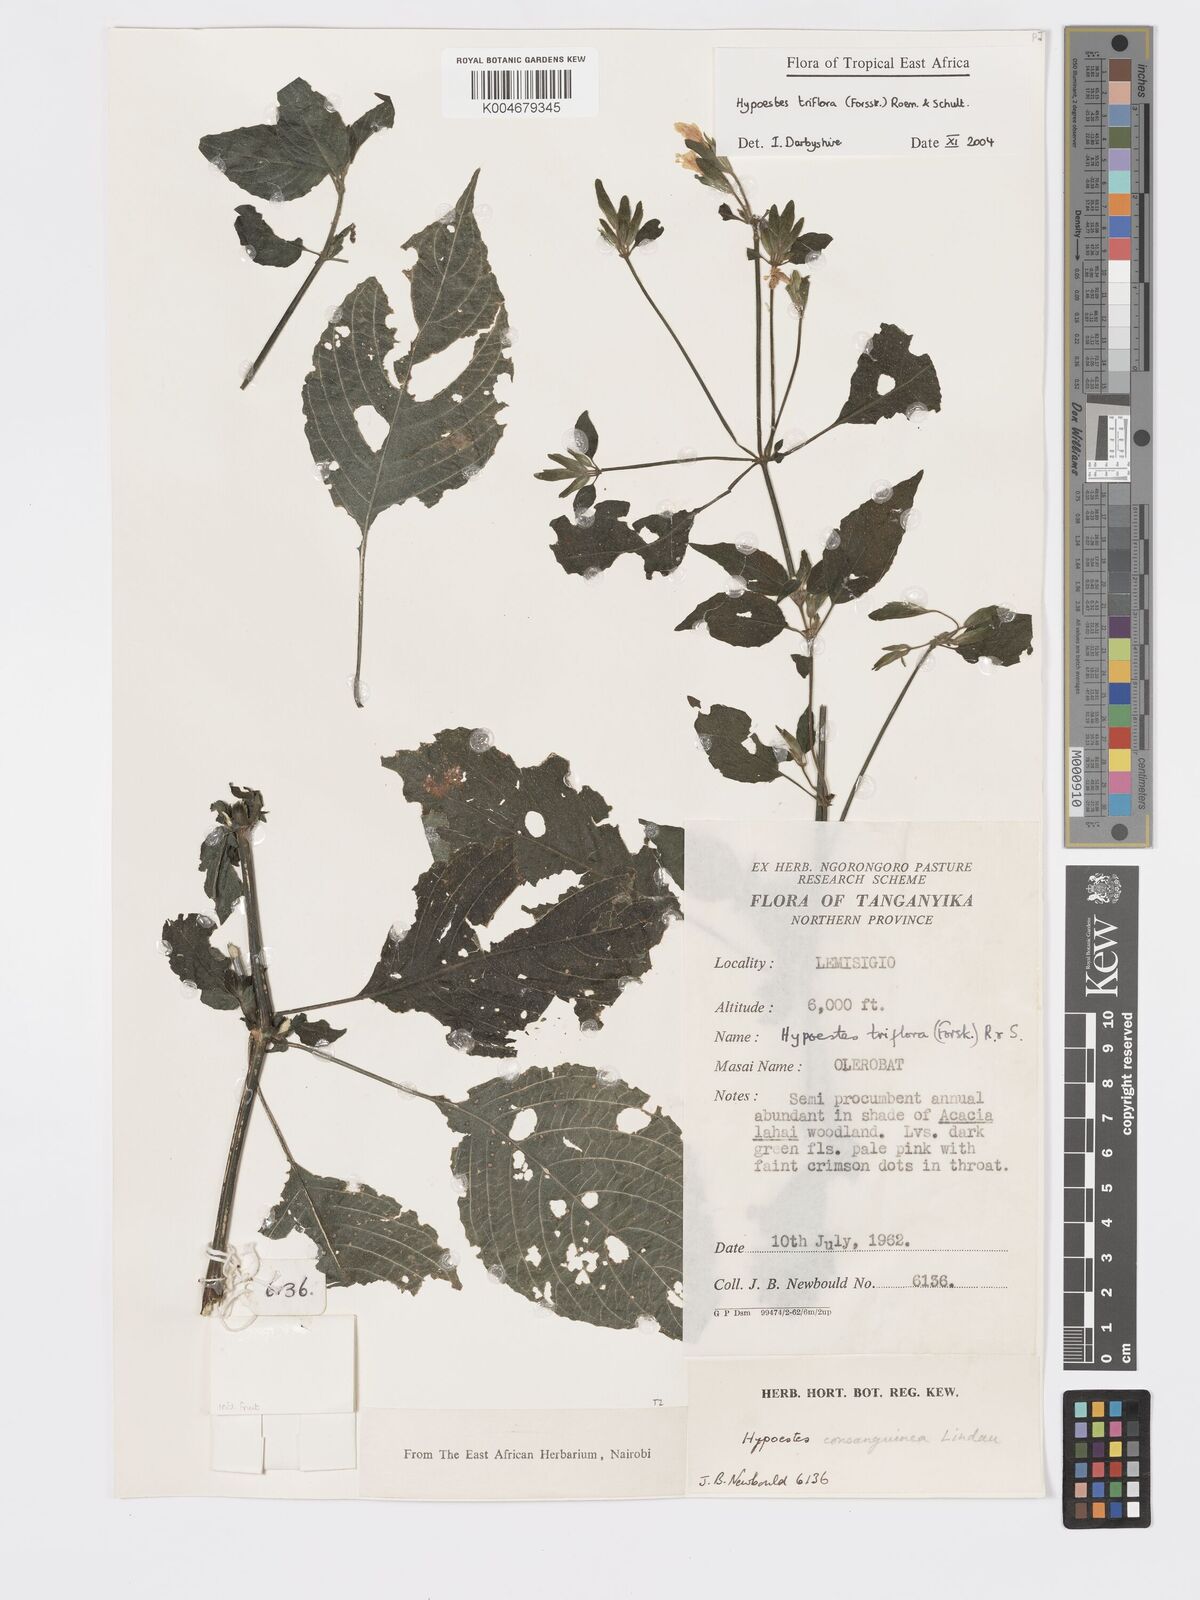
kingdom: Plantae
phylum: Tracheophyta
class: Magnoliopsida
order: Lamiales
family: Acanthaceae
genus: Hypoestes
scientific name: Hypoestes triflora
